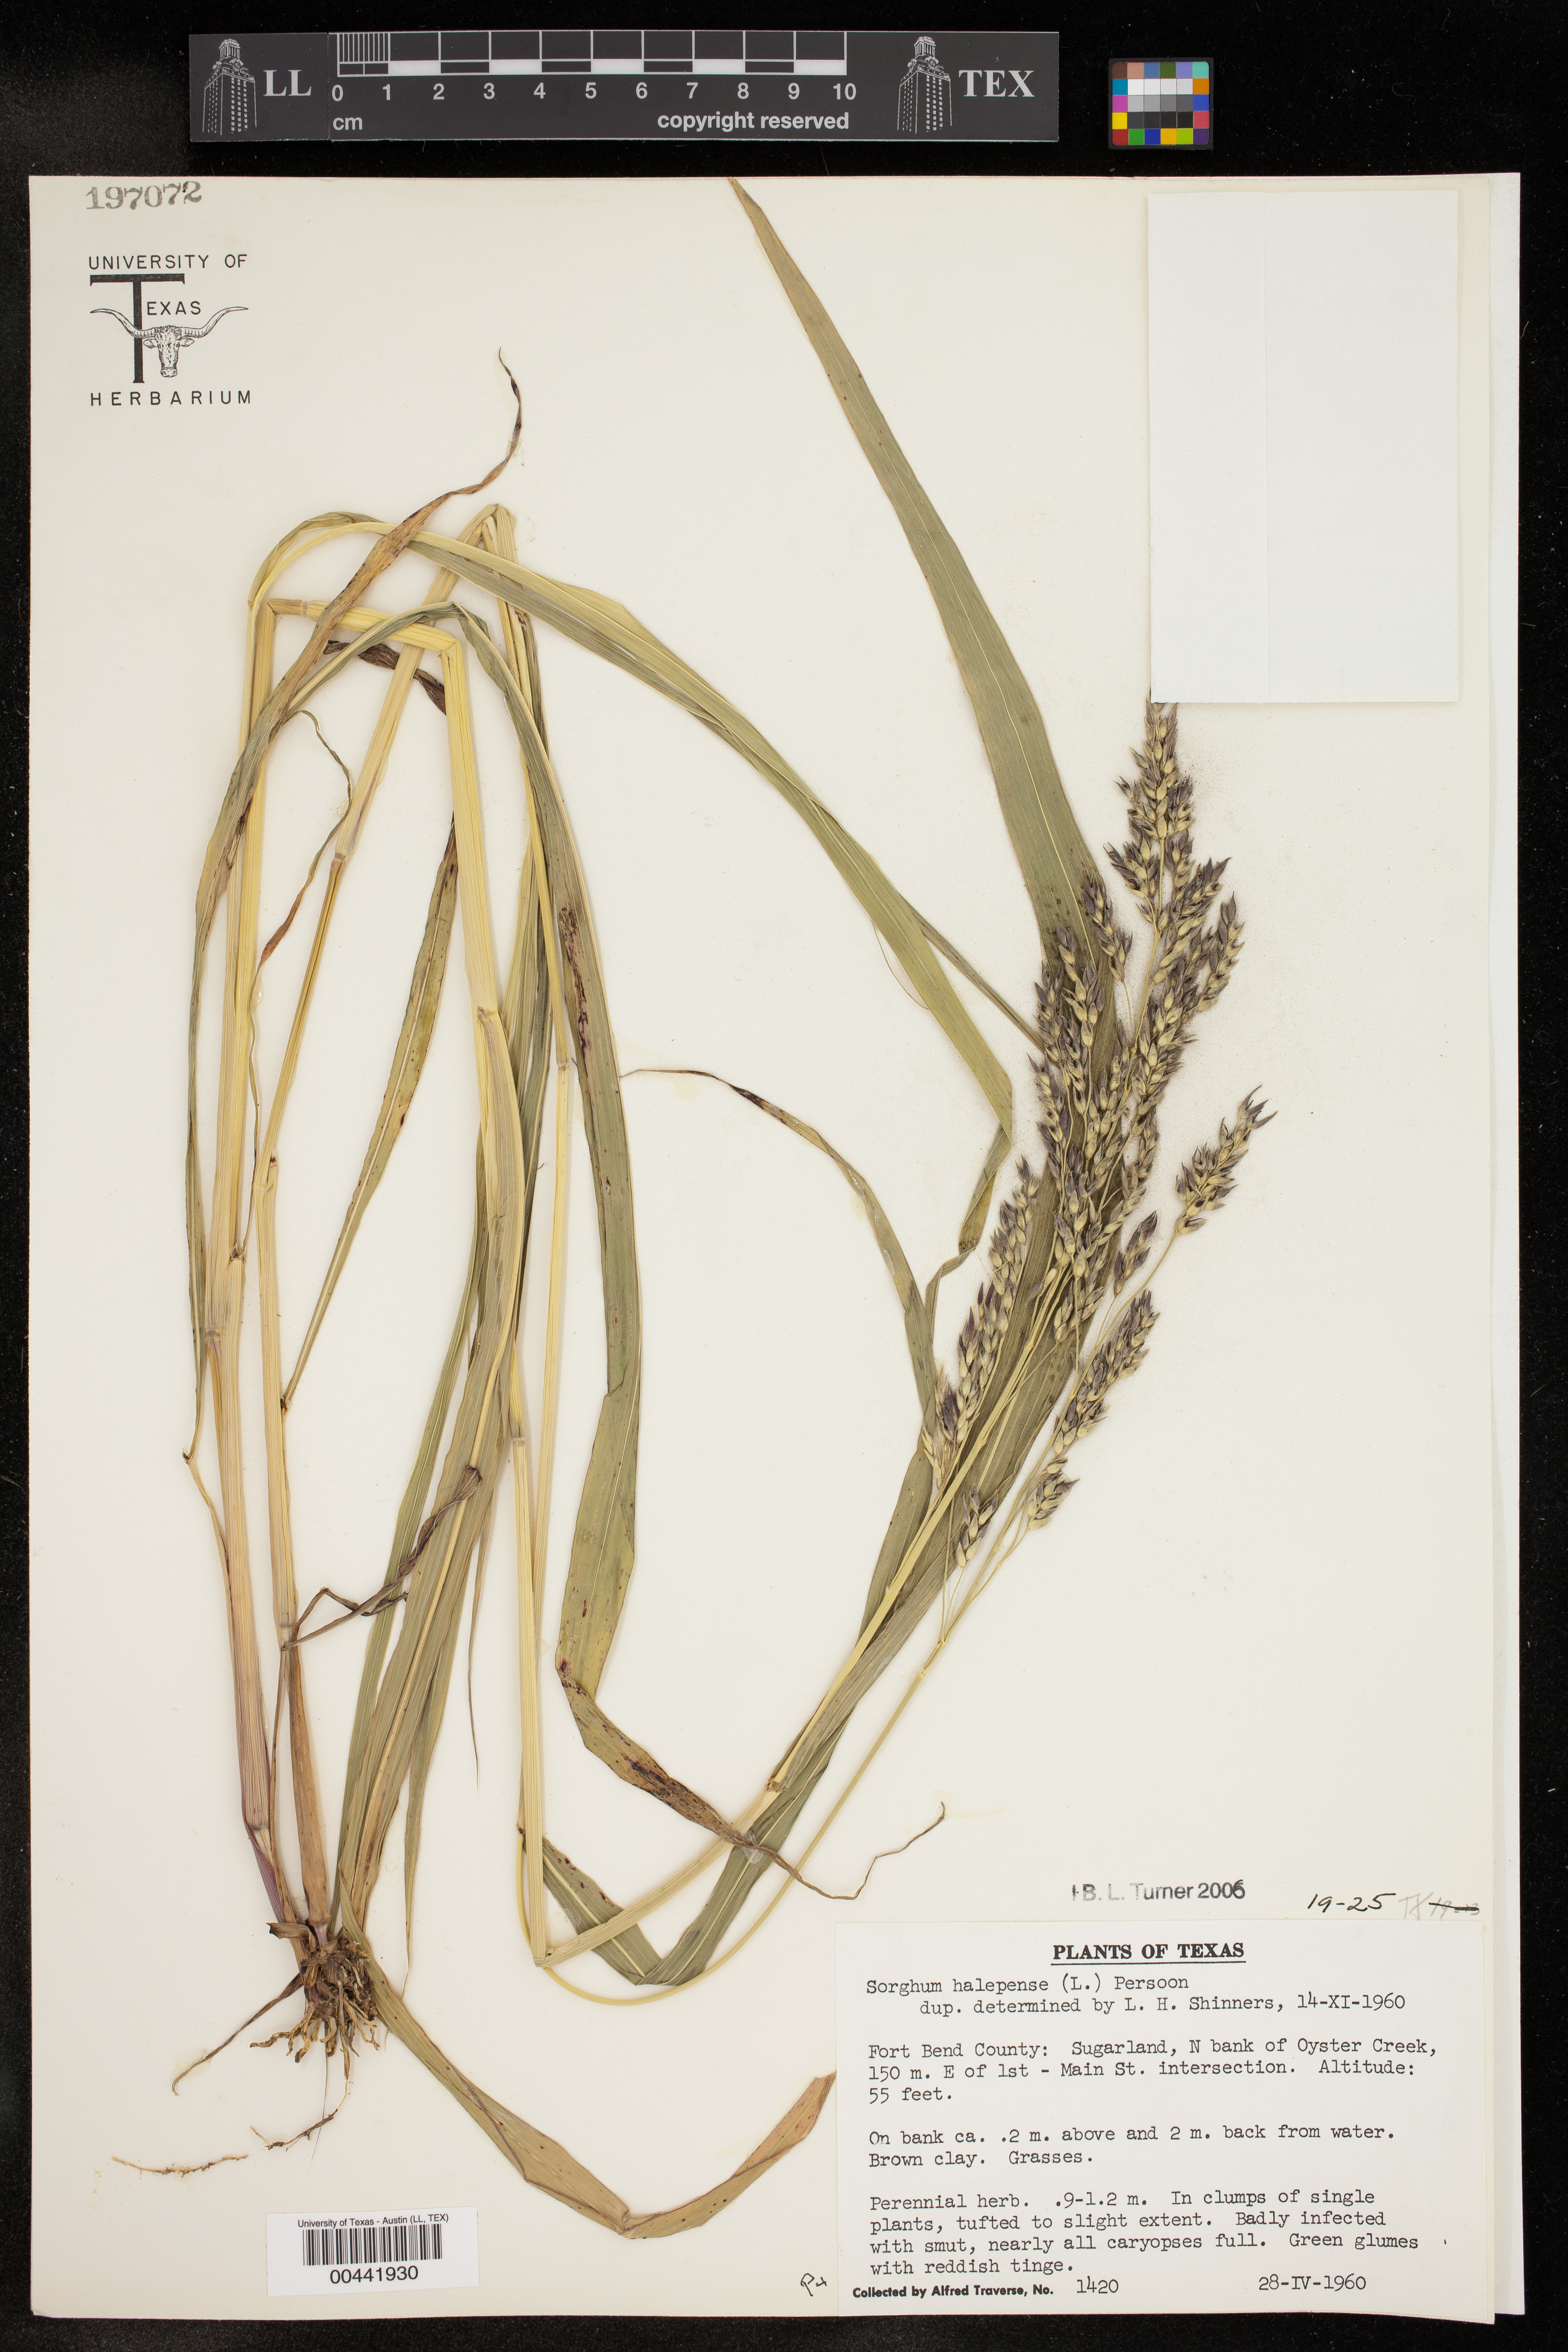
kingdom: Plantae
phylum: Tracheophyta
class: Liliopsida
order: Poales
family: Poaceae
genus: Sorghum
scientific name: Sorghum halepense
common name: Johnson-grass
